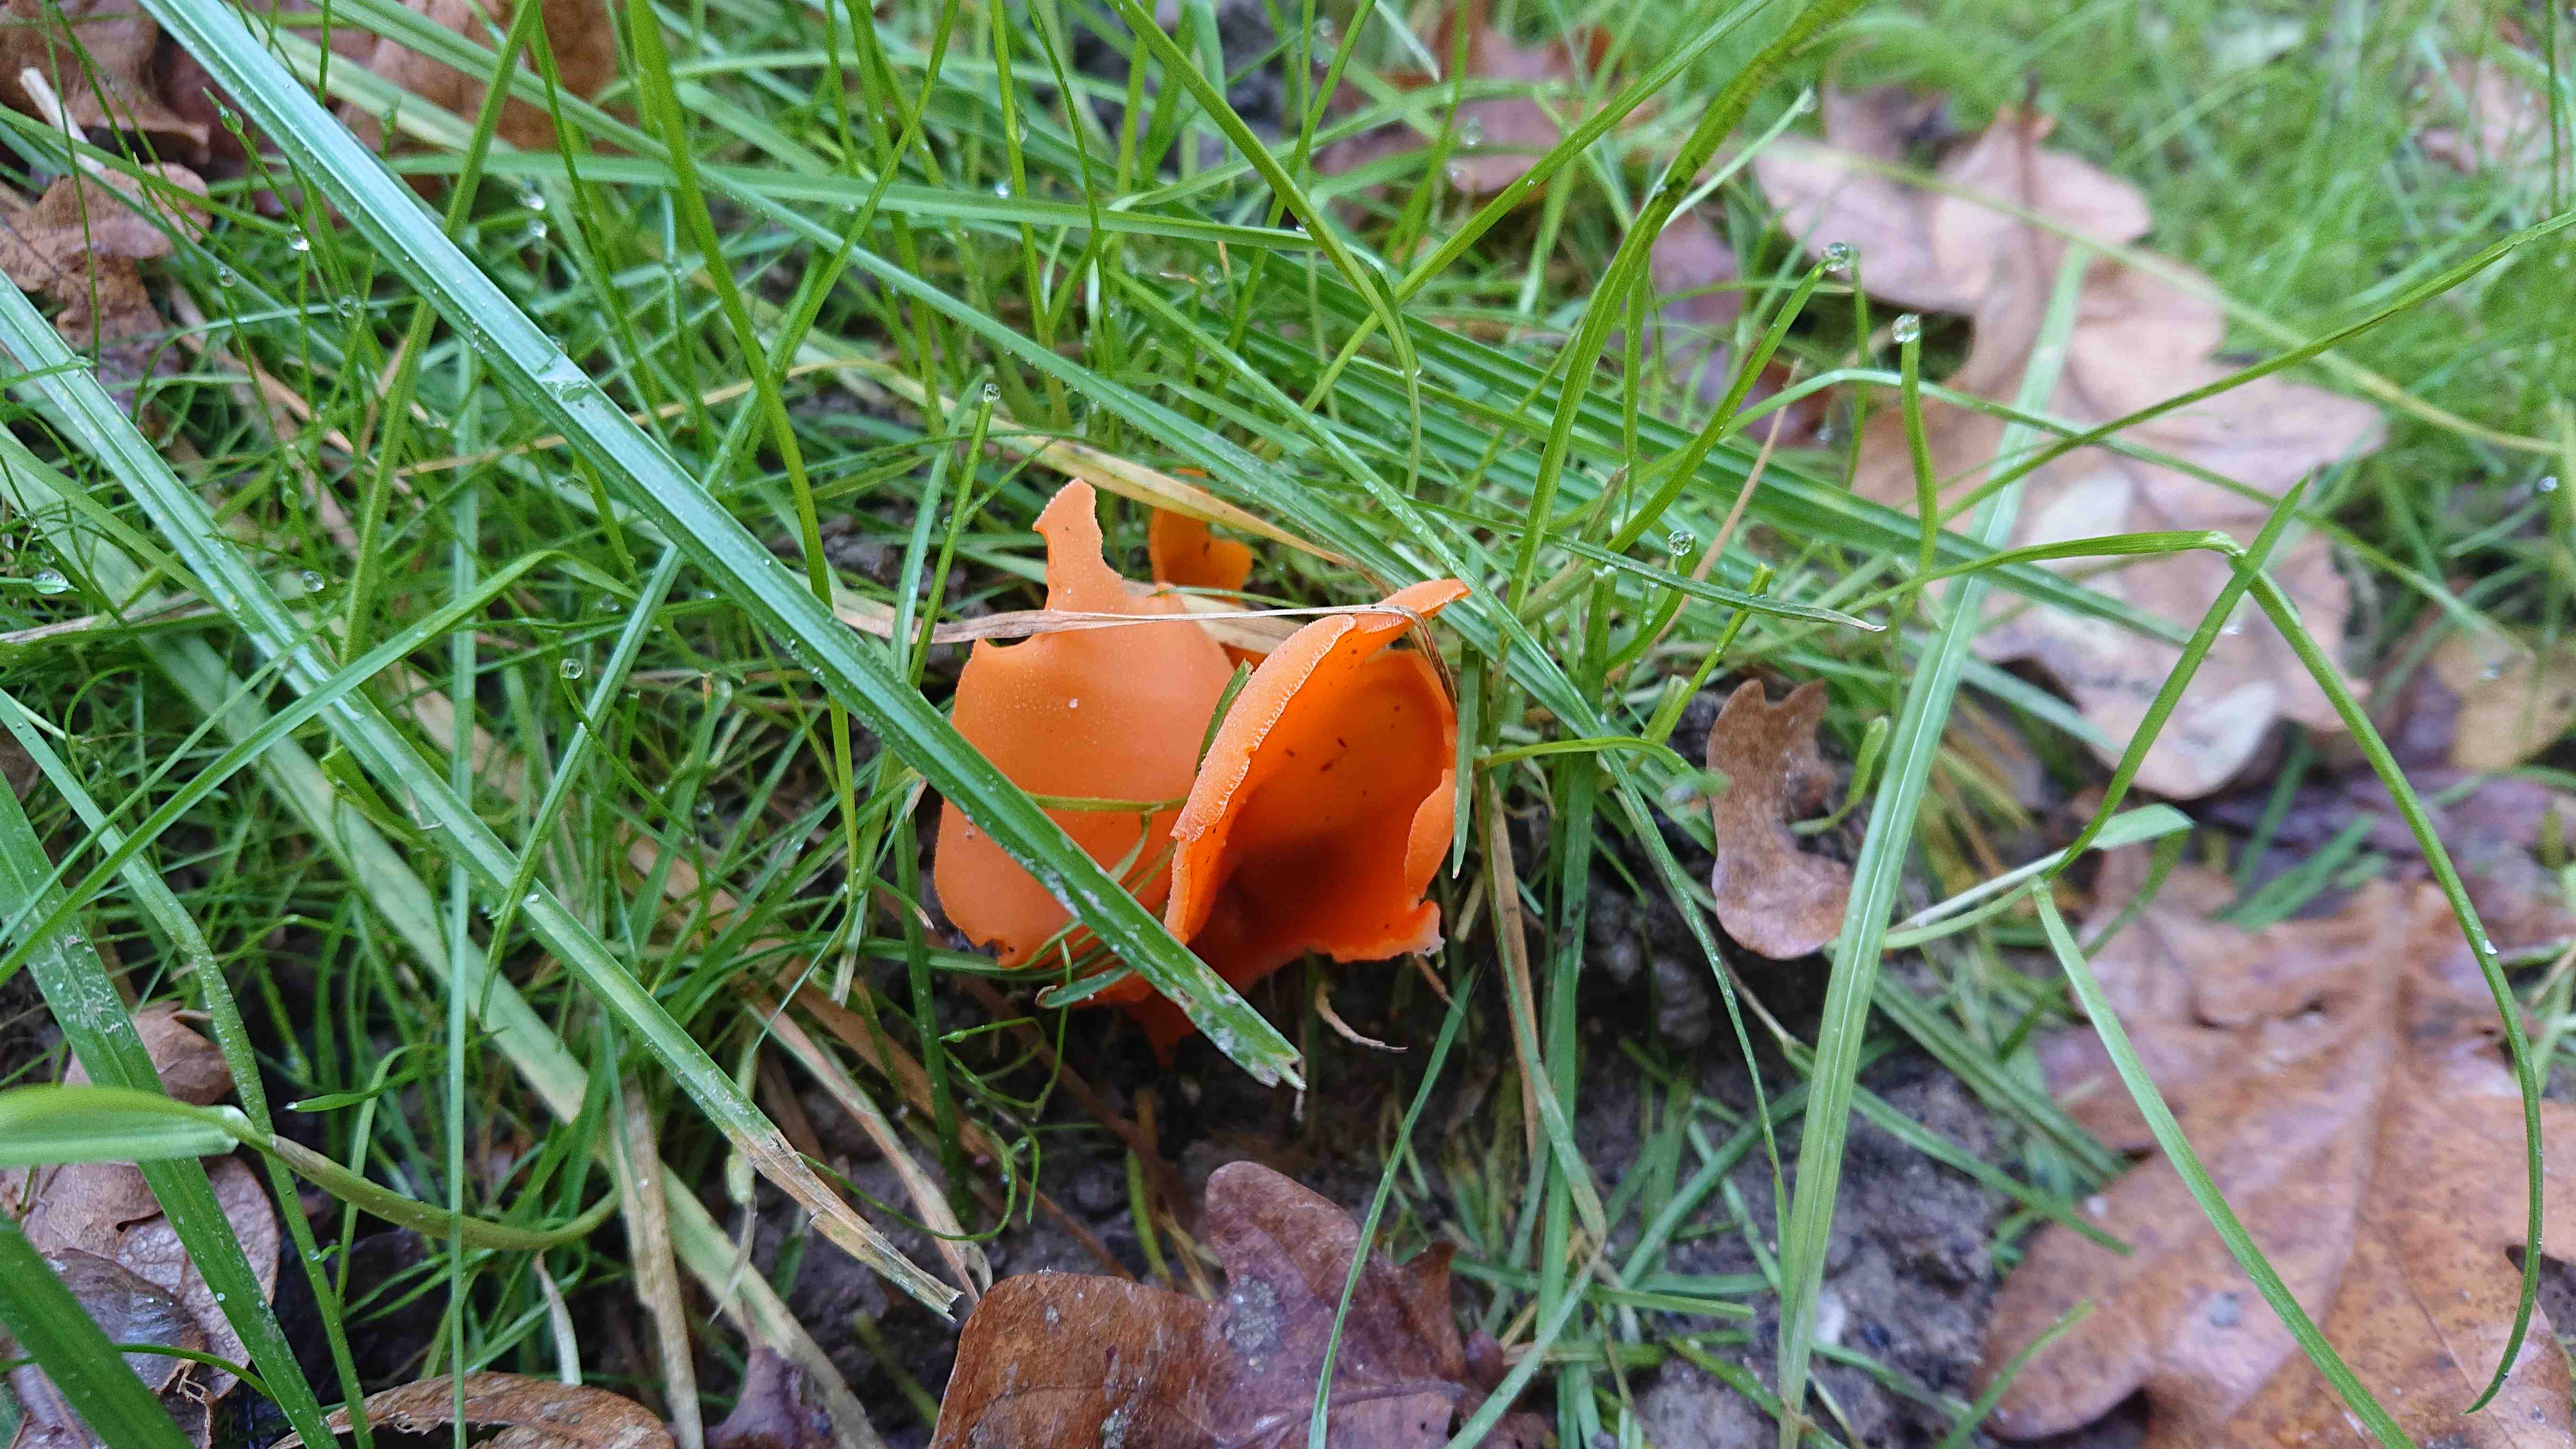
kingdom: Fungi
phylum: Ascomycota
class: Pezizomycetes
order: Pezizales
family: Pyronemataceae
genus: Aleuria
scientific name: Aleuria aurantia
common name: almindelig orangebæger
